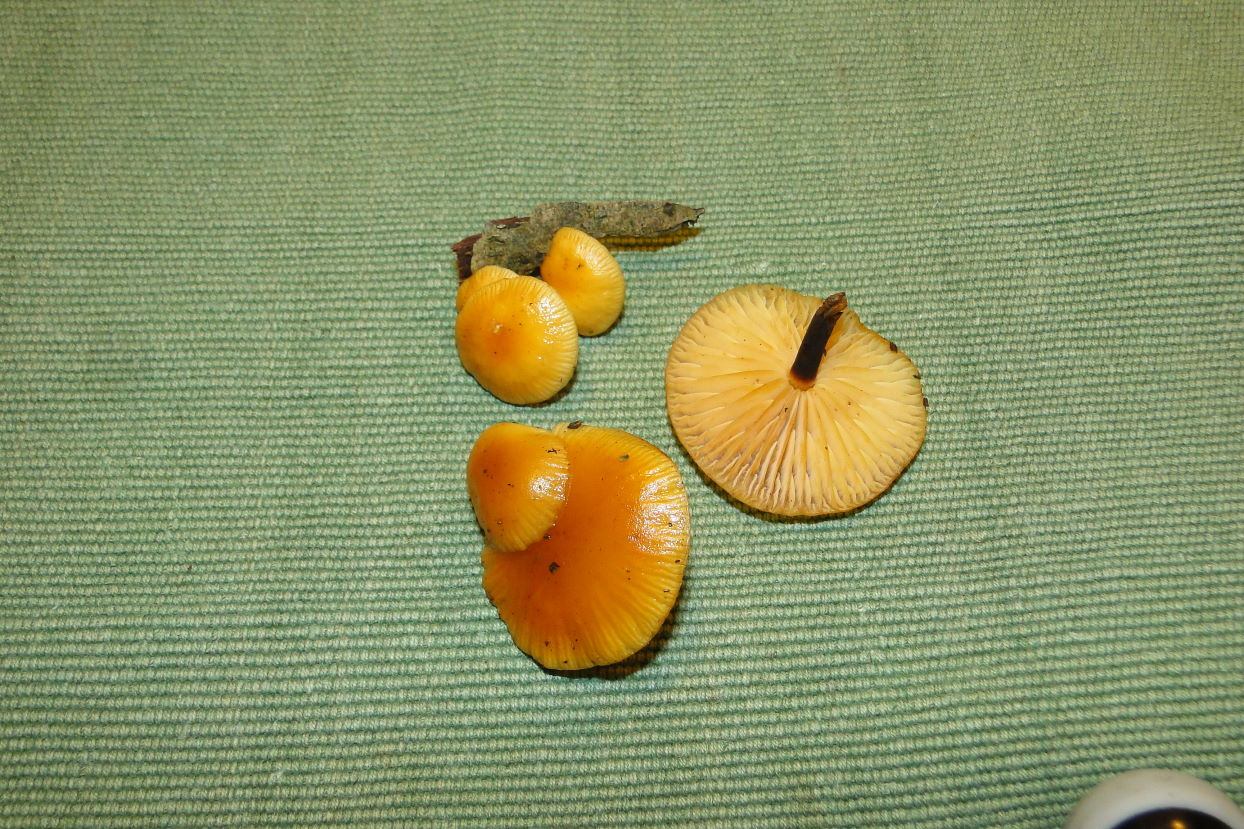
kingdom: Fungi
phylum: Basidiomycota
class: Agaricomycetes
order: Agaricales
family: Physalacriaceae
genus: Flammulina
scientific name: Flammulina elastica
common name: pile-fløjlsfod
